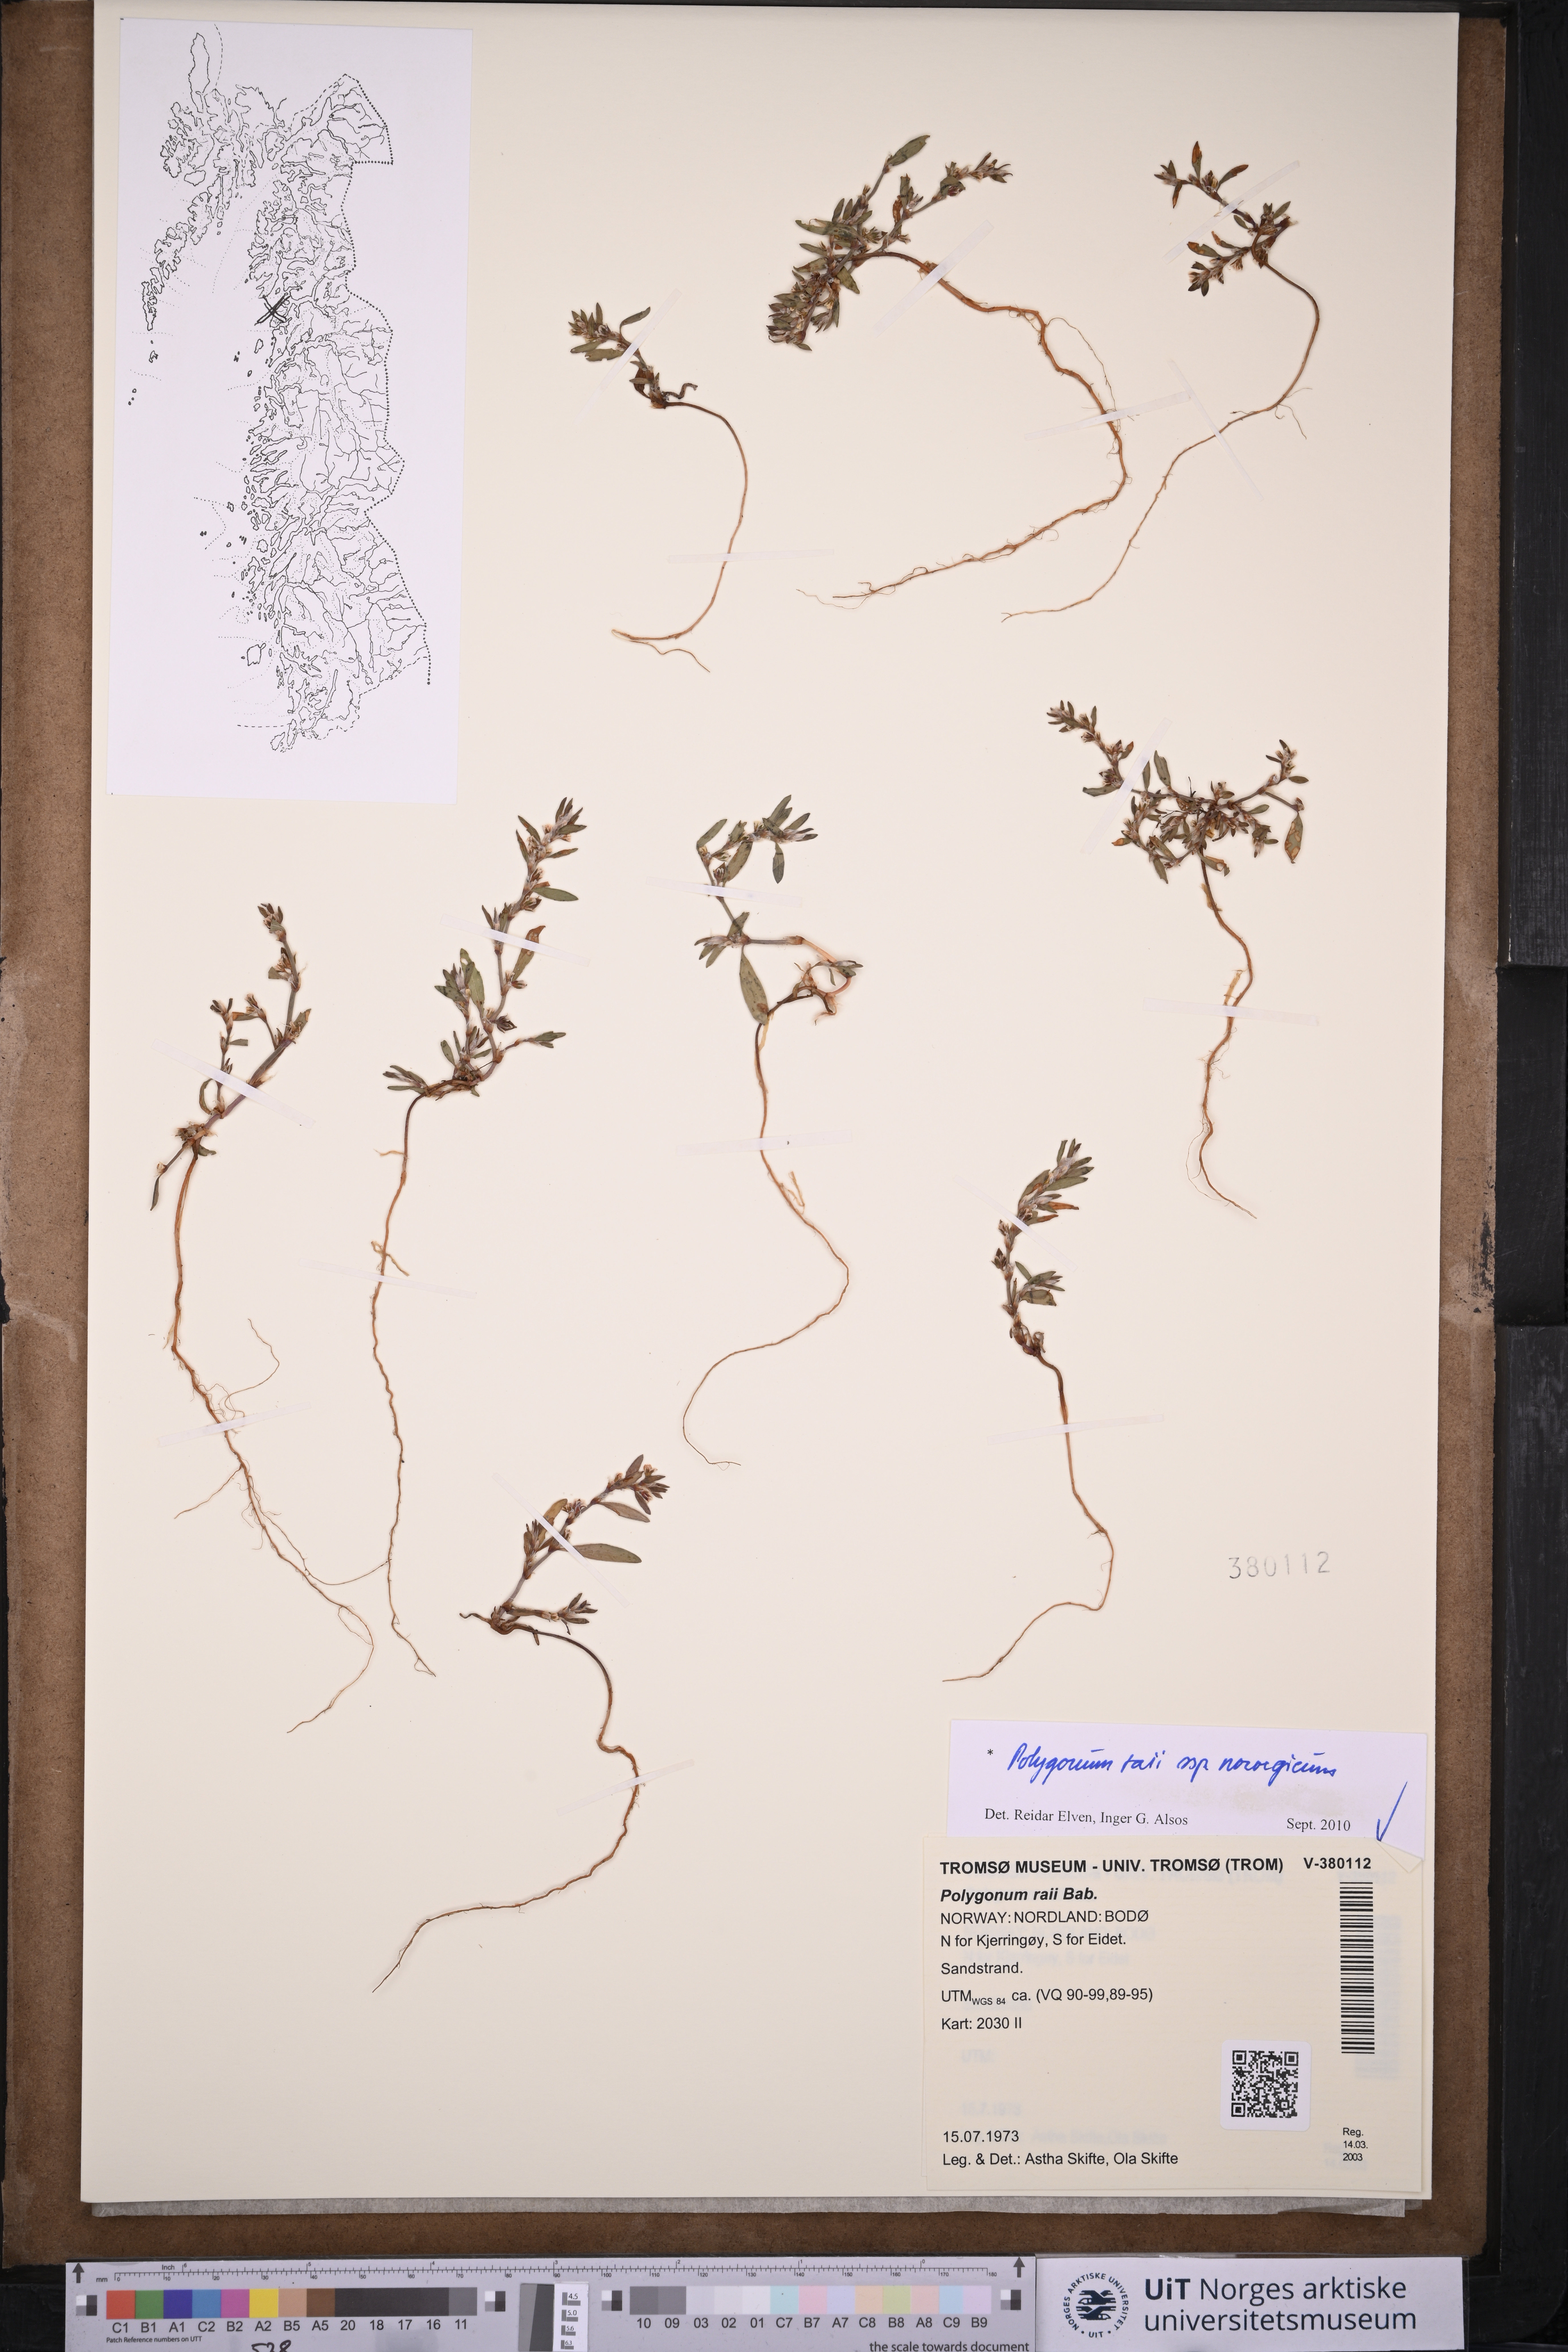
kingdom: Plantae
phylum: Tracheophyta
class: Magnoliopsida
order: Caryophyllales
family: Polygonaceae
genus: Polygonum
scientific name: Polygonum norvegicum
